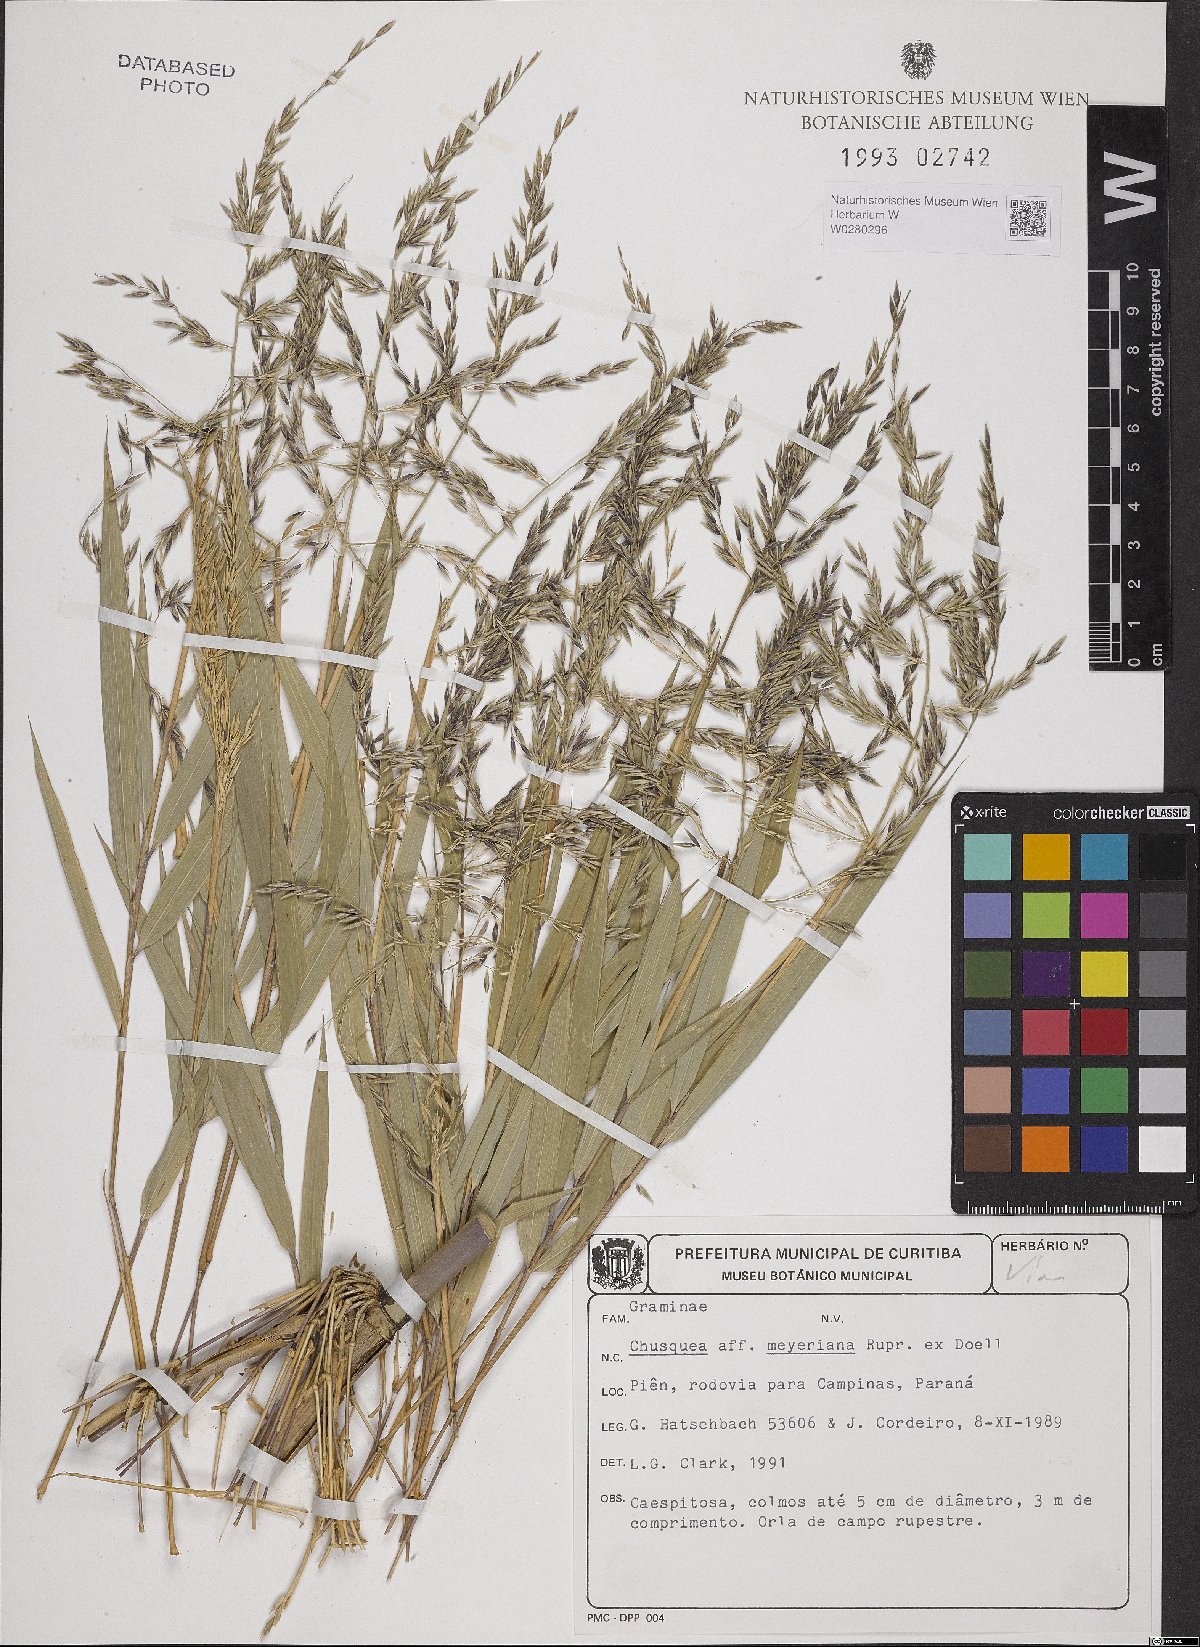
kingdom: Plantae
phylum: Tracheophyta
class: Liliopsida
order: Poales
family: Poaceae
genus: Chusquea
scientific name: Chusquea
